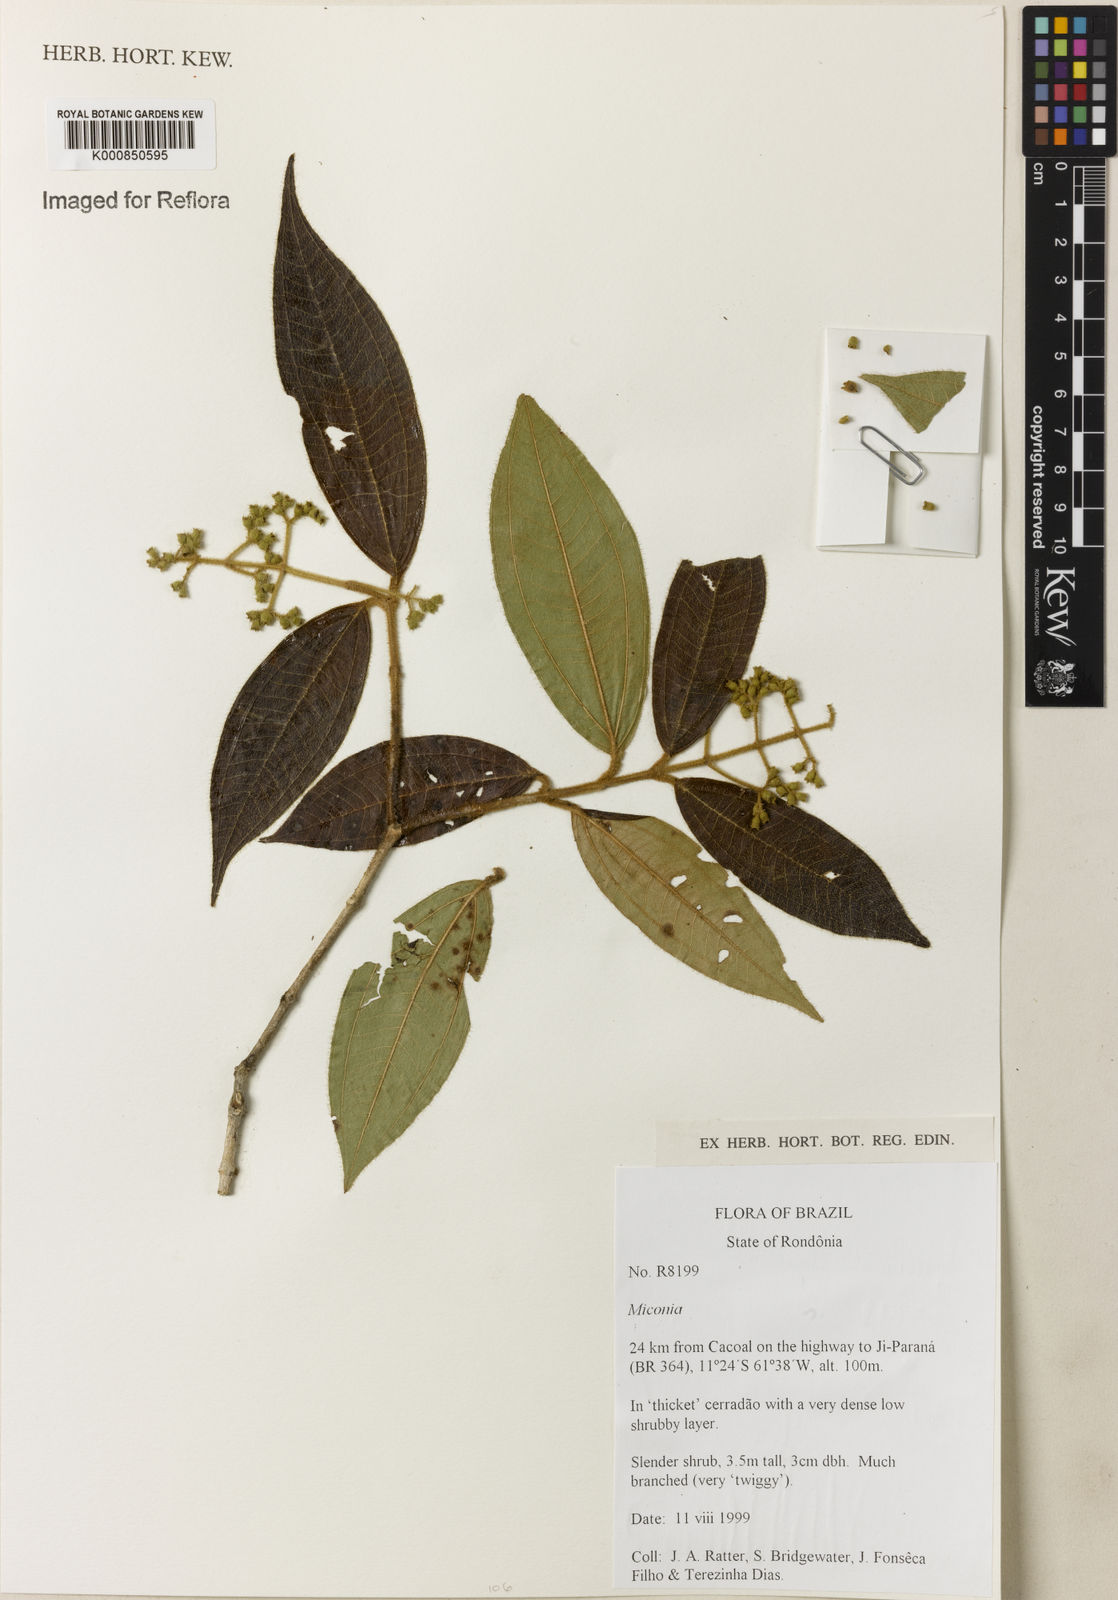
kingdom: Plantae
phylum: Tracheophyta
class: Magnoliopsida
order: Myrtales
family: Melastomataceae
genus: Miconia
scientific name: Miconia
